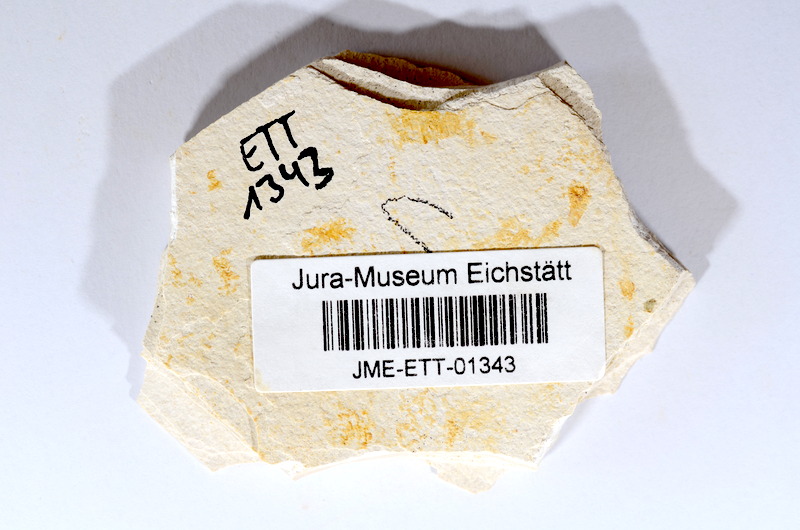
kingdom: Animalia
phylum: Chordata
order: Salmoniformes
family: Orthogonikleithridae
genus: Orthogonikleithrus
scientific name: Orthogonikleithrus hoelli
